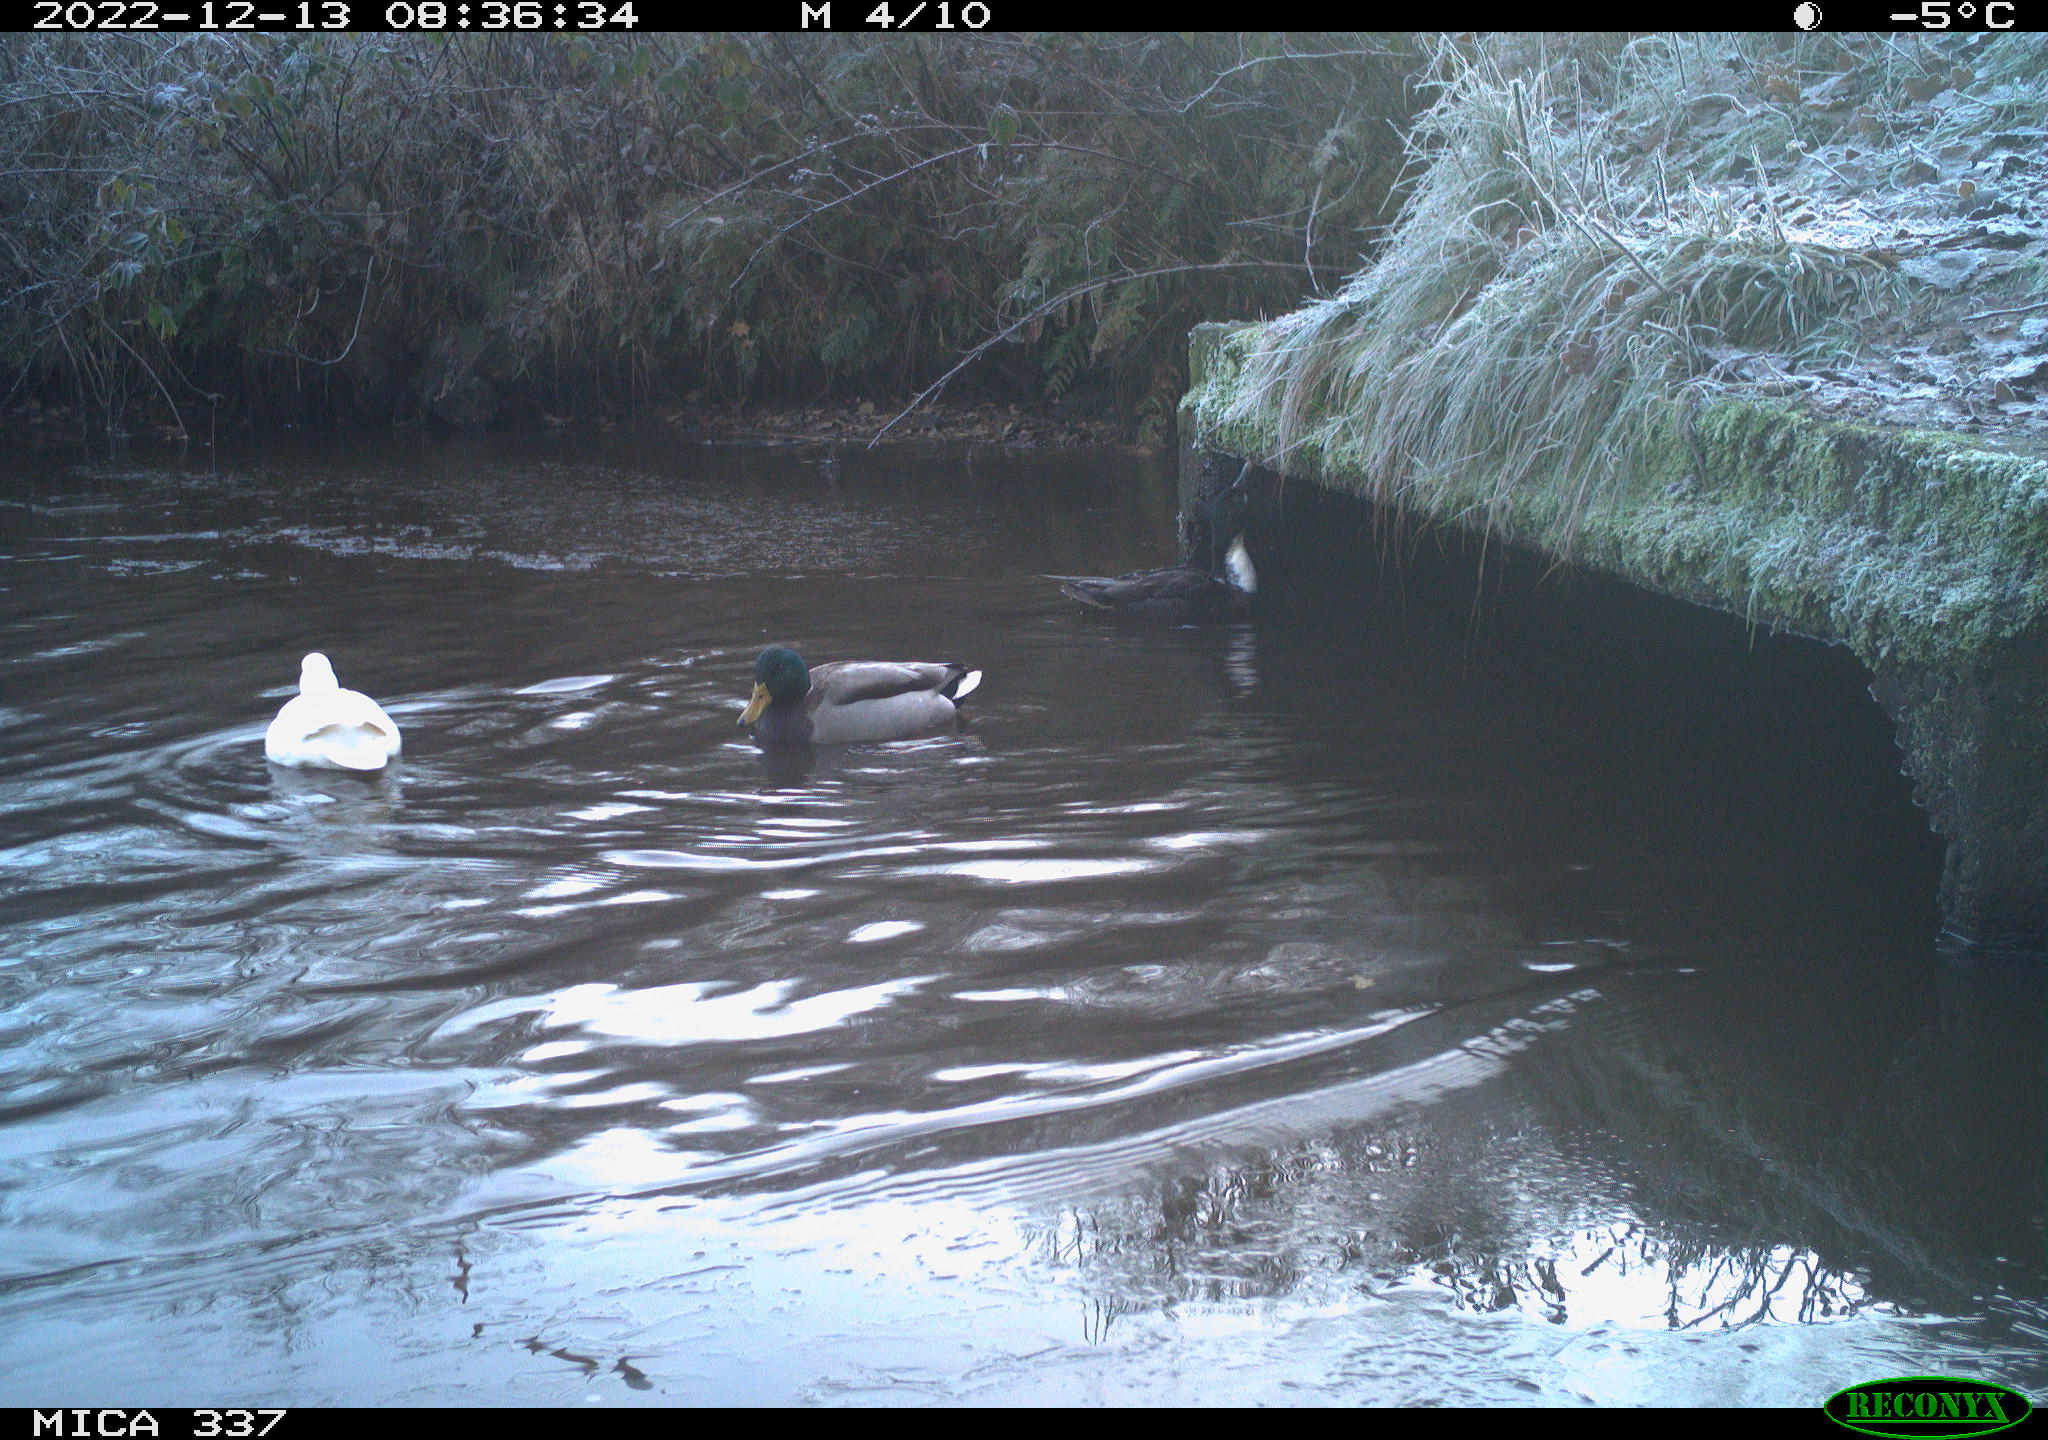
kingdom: Animalia
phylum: Chordata
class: Aves
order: Gruiformes
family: Rallidae
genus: Gallinula
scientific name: Gallinula chloropus
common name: Common moorhen
